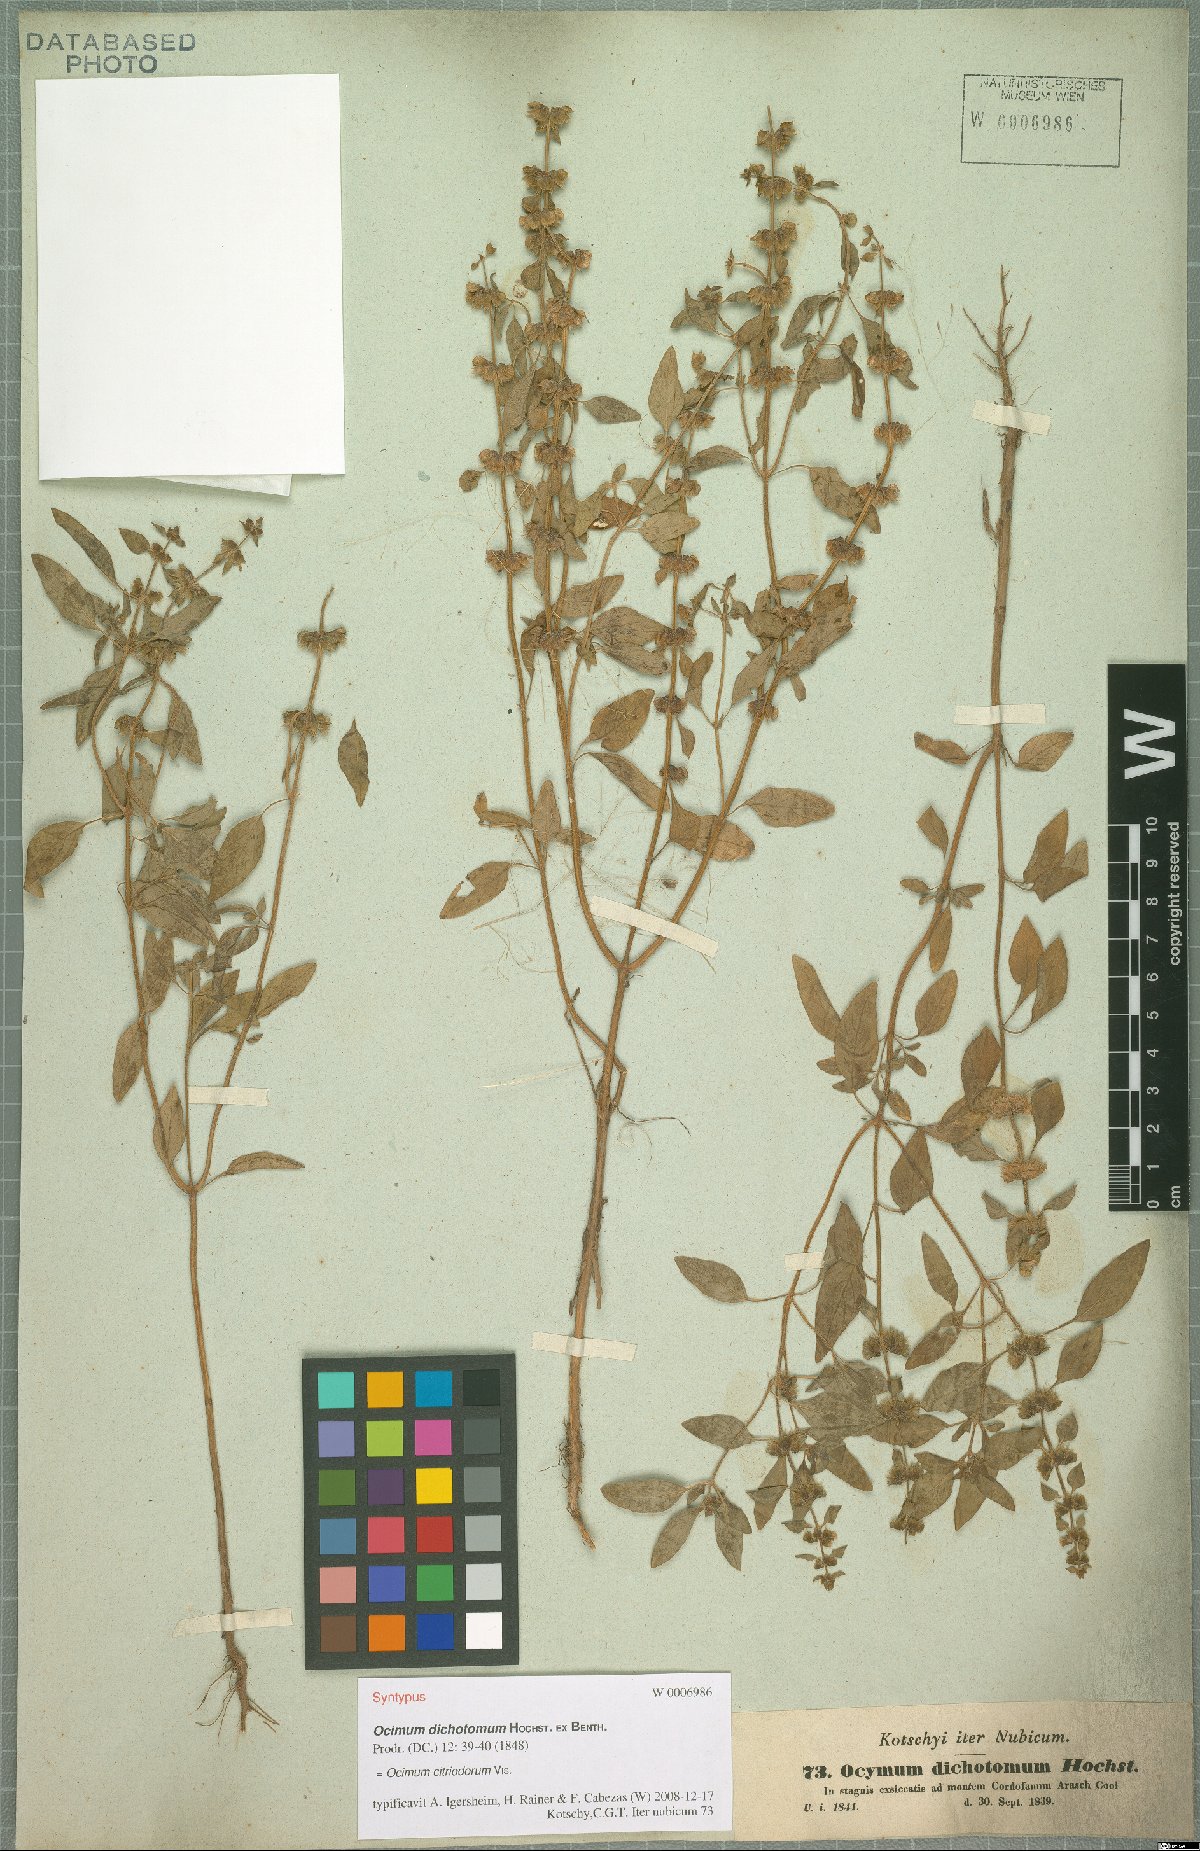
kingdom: Plantae
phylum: Tracheophyta
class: Magnoliopsida
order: Lamiales
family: Lamiaceae
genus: Ocimum
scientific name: Ocimum africanum
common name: Hoary basil
